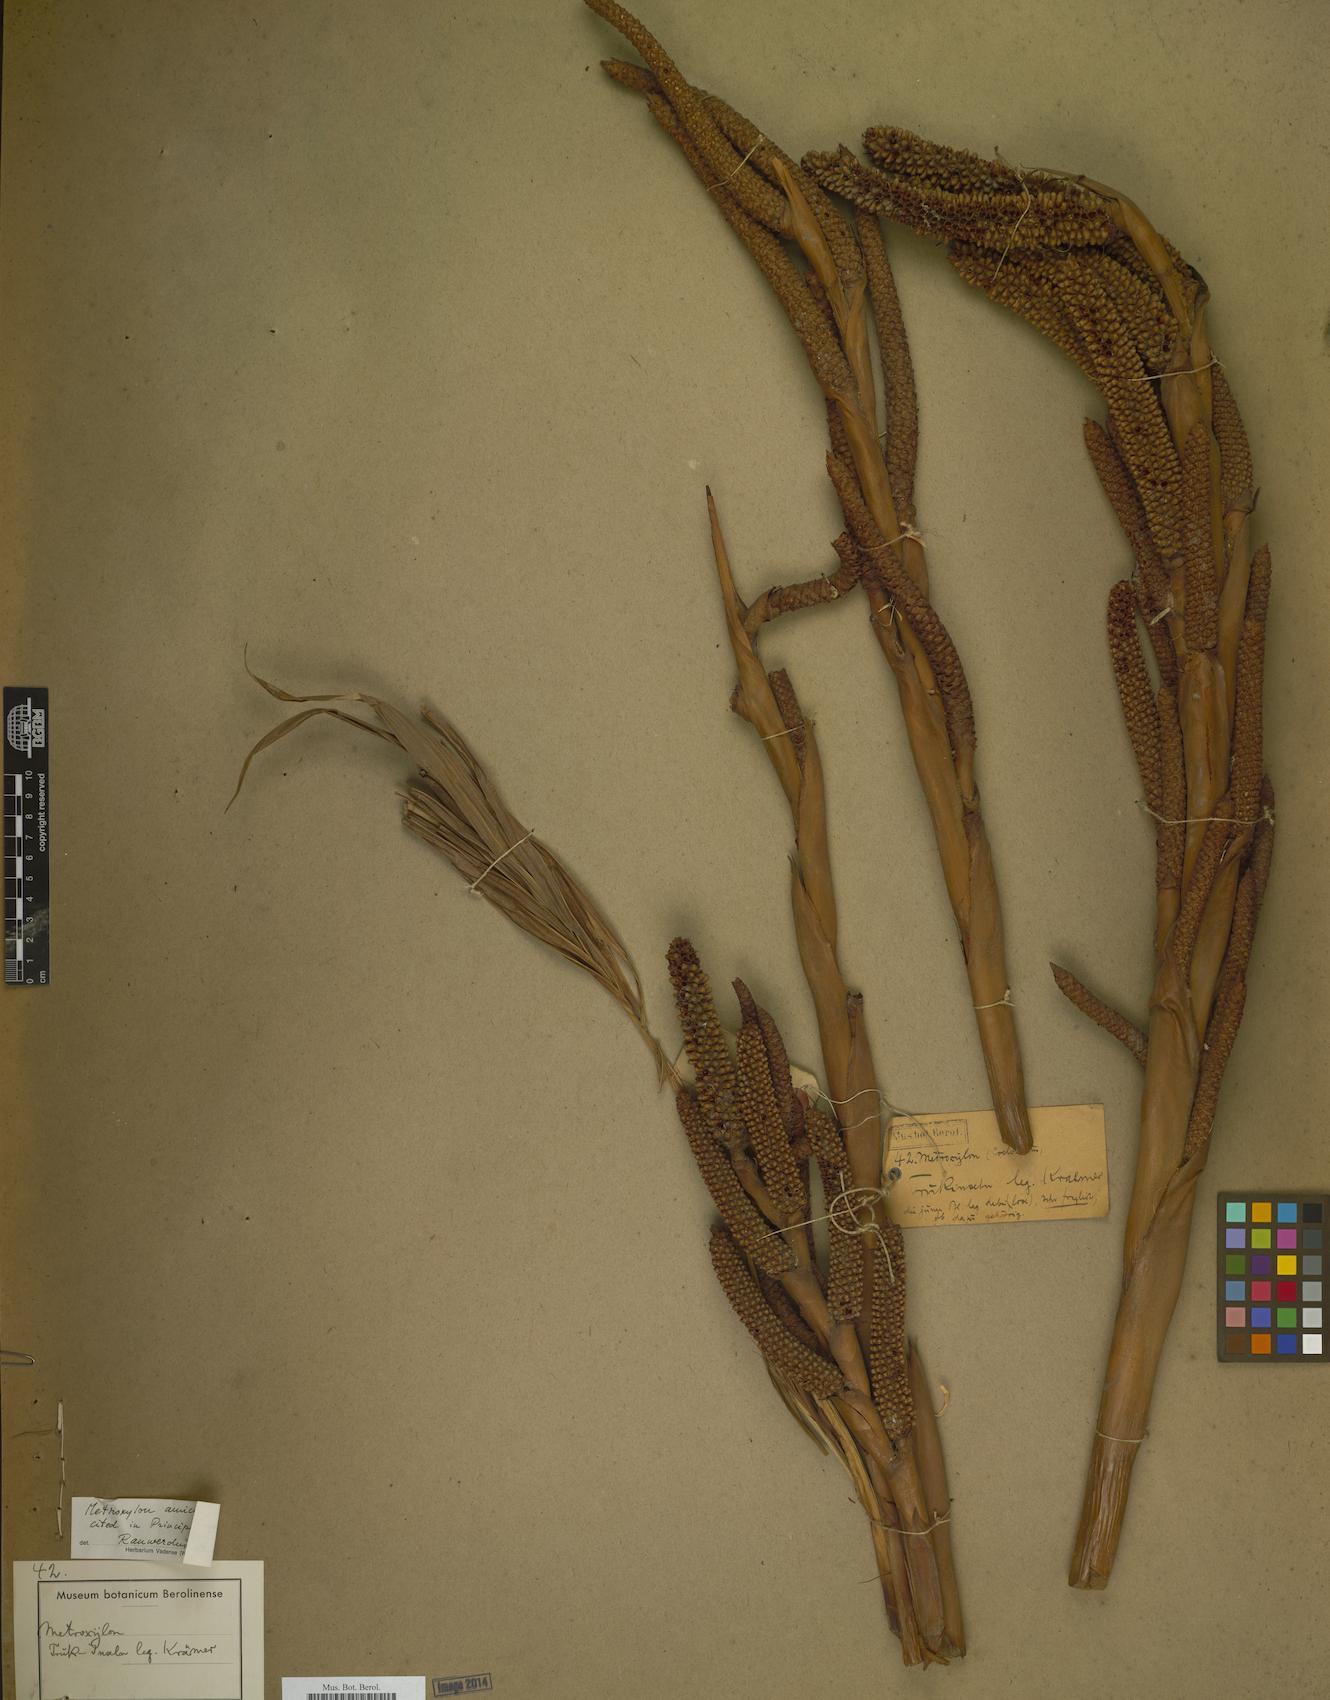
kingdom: Plantae
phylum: Tracheophyta
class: Liliopsida
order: Arecales
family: Arecaceae
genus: Metroxylon
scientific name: Metroxylon amicarum
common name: Caroline ivory nut
